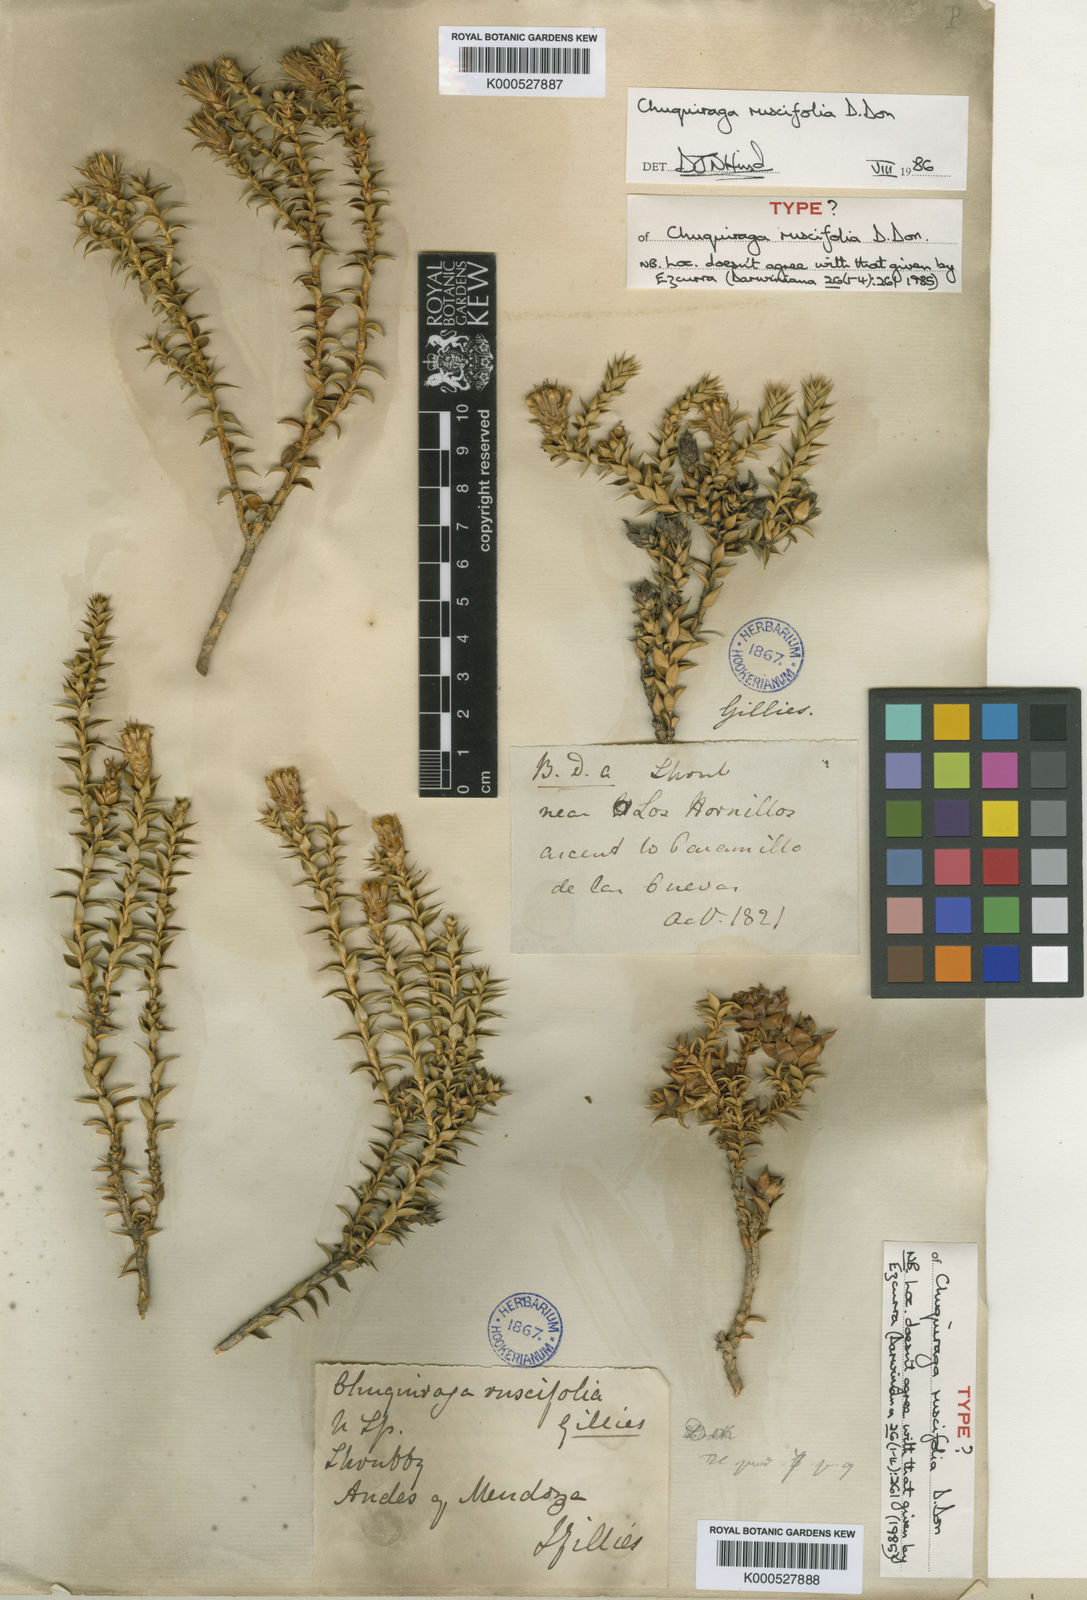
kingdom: Plantae
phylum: Tracheophyta
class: Magnoliopsida
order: Asterales
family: Asteraceae
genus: Chuquiraga
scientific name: Chuquiraga ruscifolia
